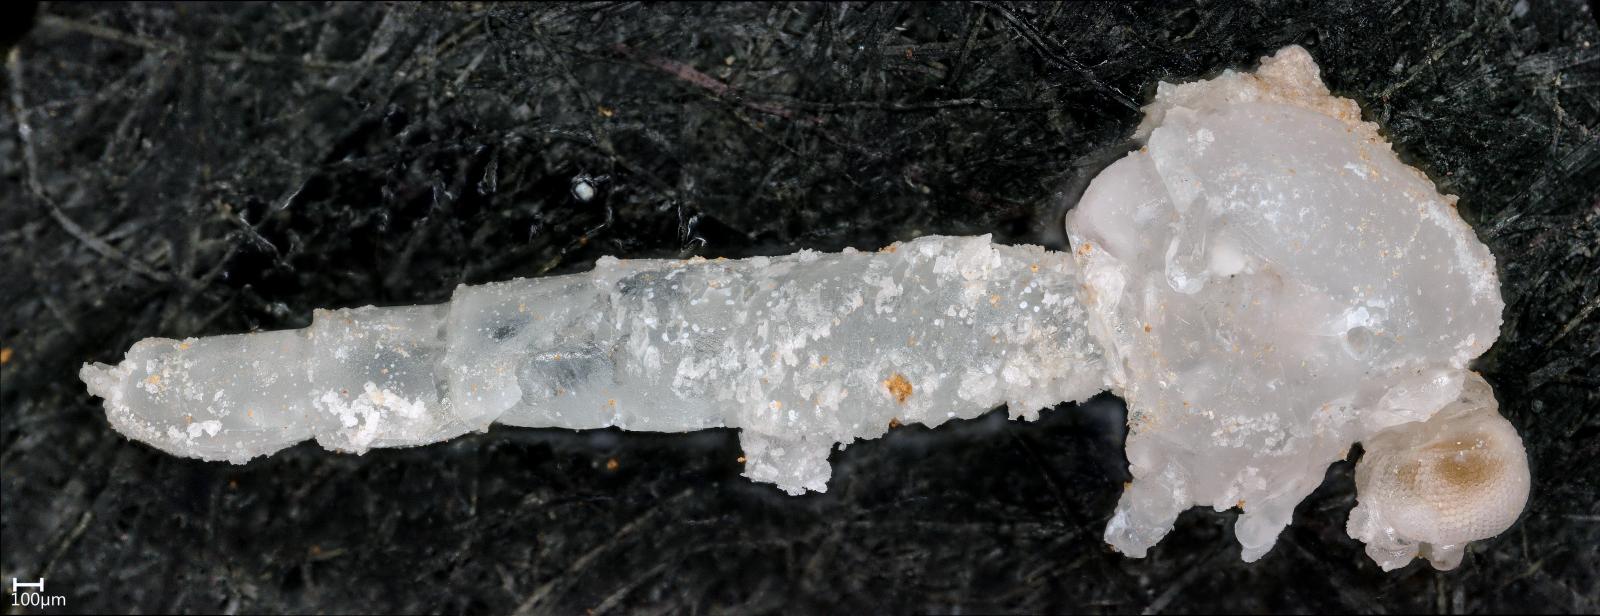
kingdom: Animalia
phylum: Arthropoda
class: Insecta
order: Diptera
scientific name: Diptera
